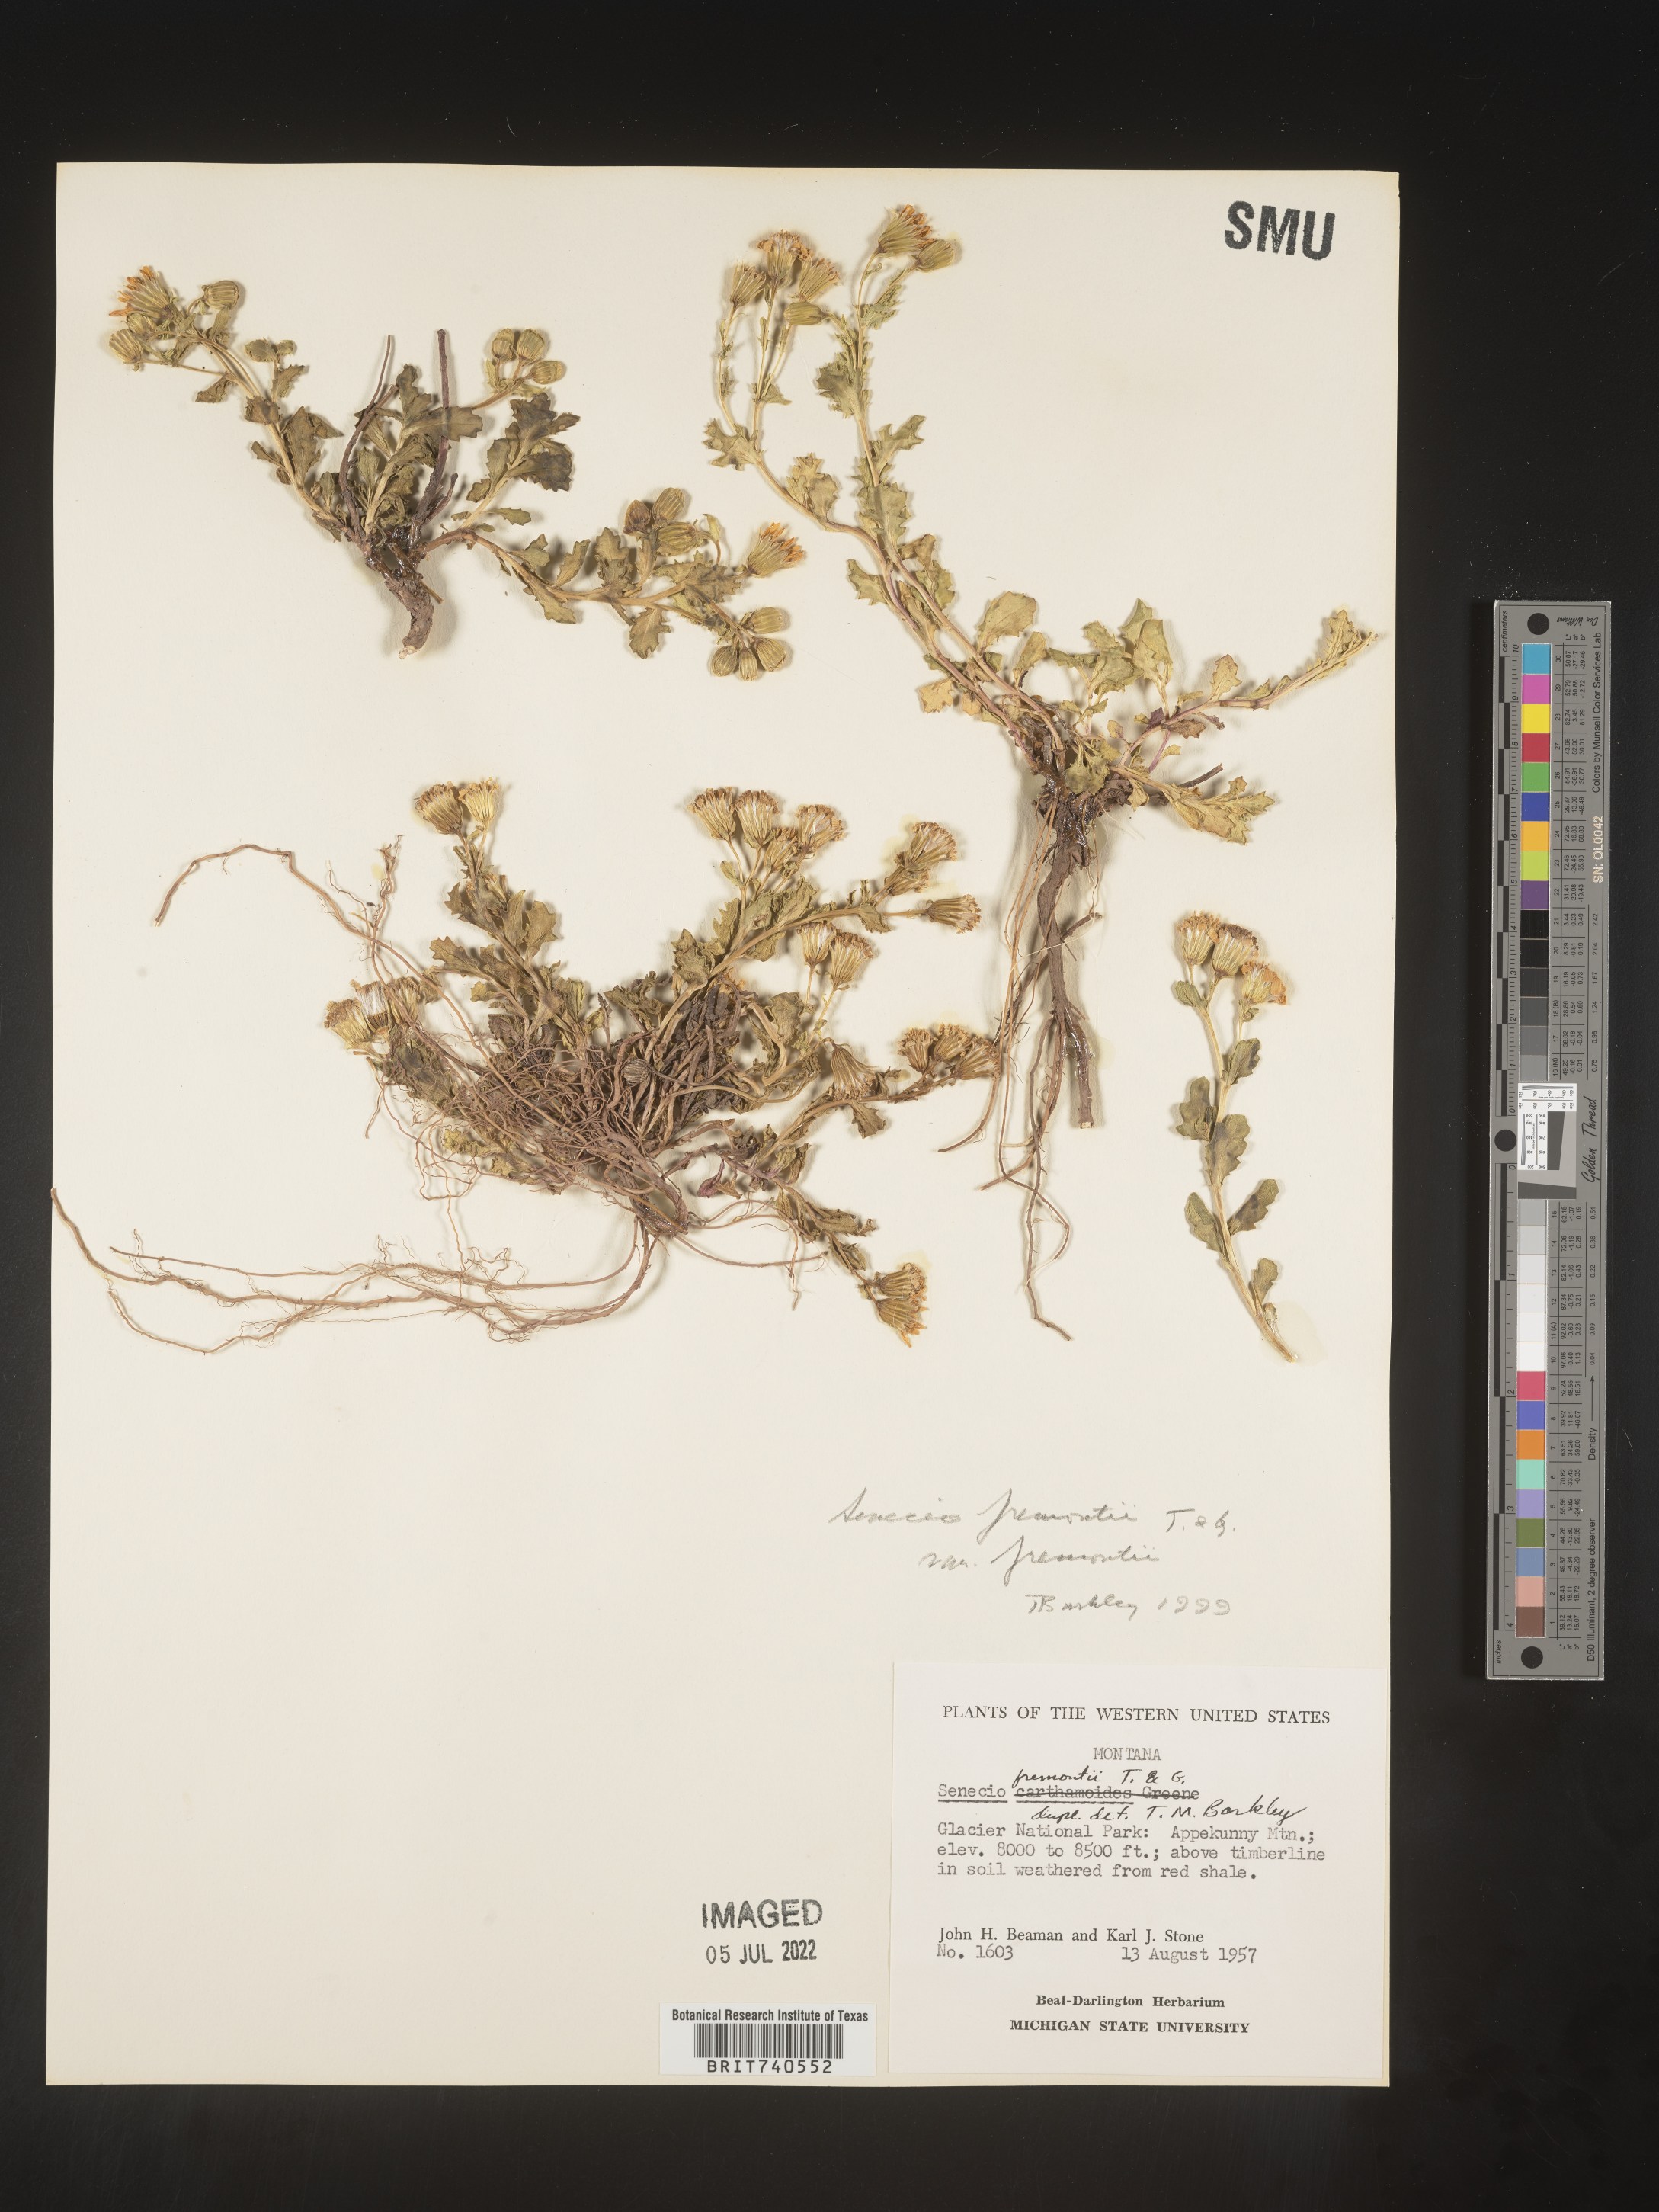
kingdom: Plantae
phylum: Tracheophyta
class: Magnoliopsida
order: Asterales
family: Asteraceae
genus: Senecio
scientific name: Senecio fremontii
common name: Fremont's groundsel
